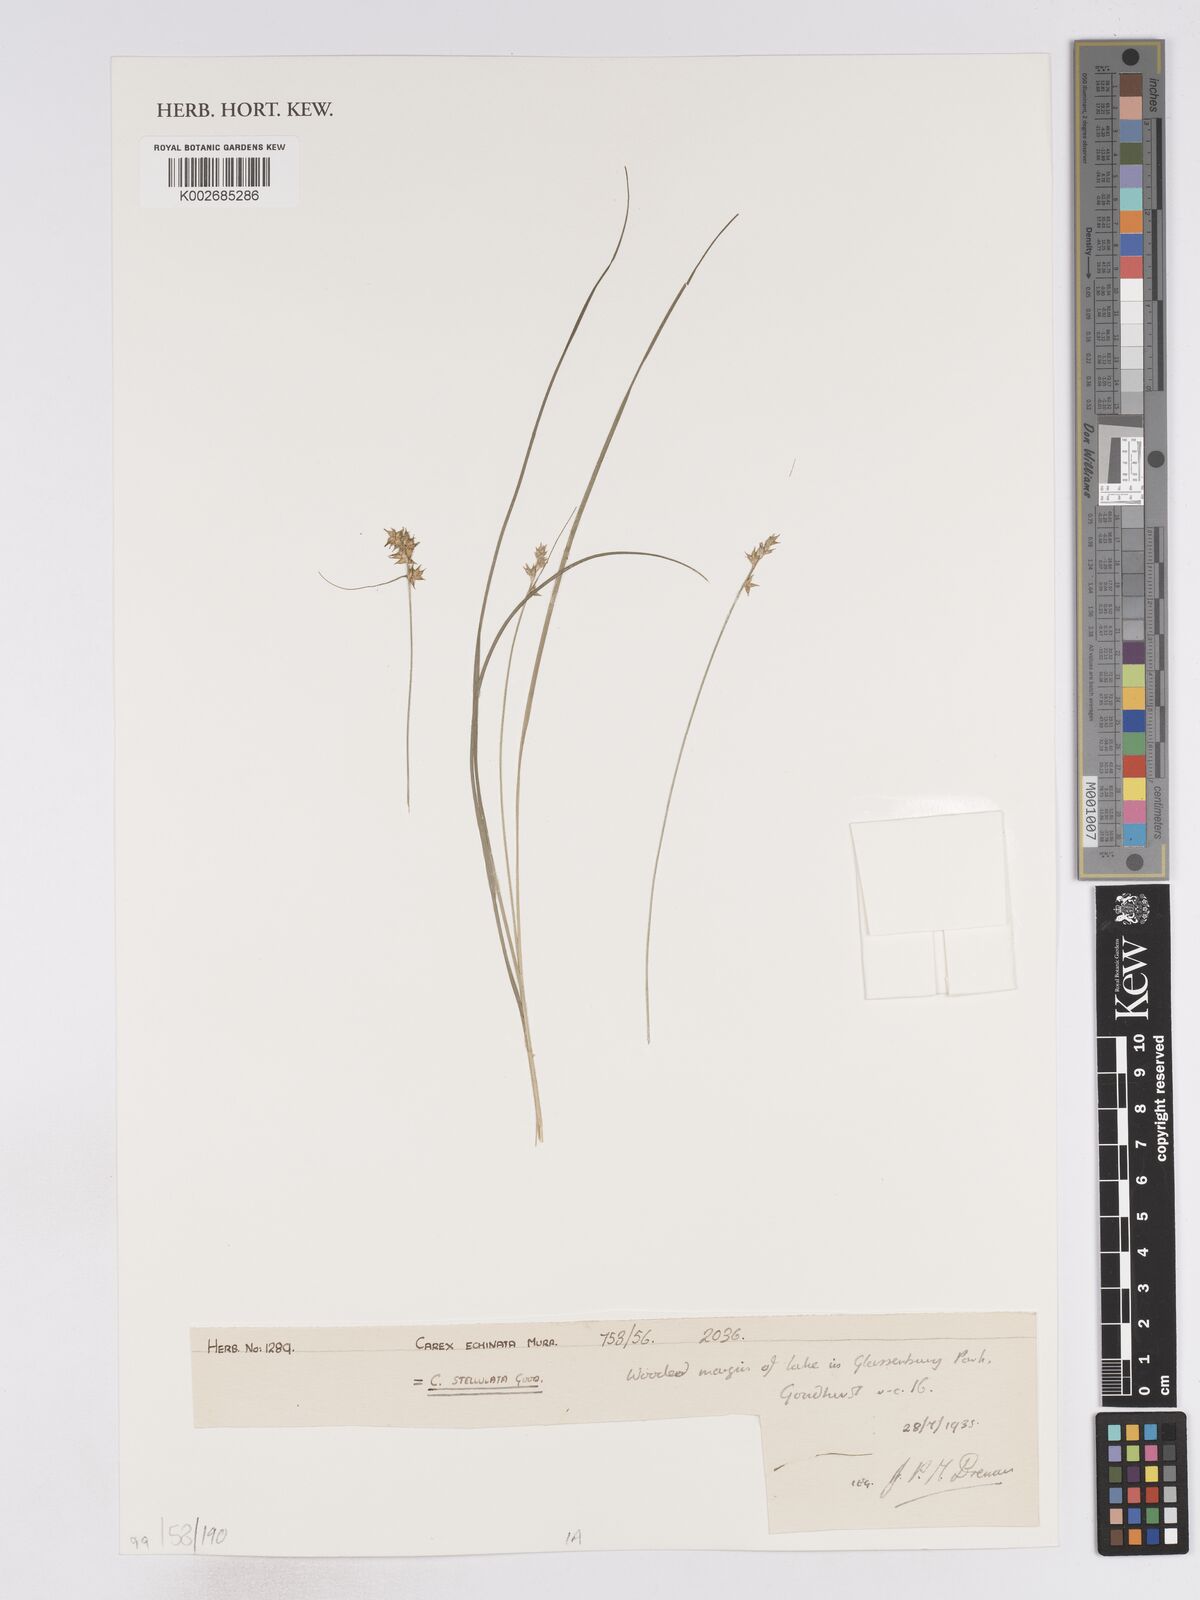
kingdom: Plantae
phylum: Tracheophyta
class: Liliopsida
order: Poales
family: Cyperaceae
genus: Carex
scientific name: Carex echinata
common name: Star sedge
